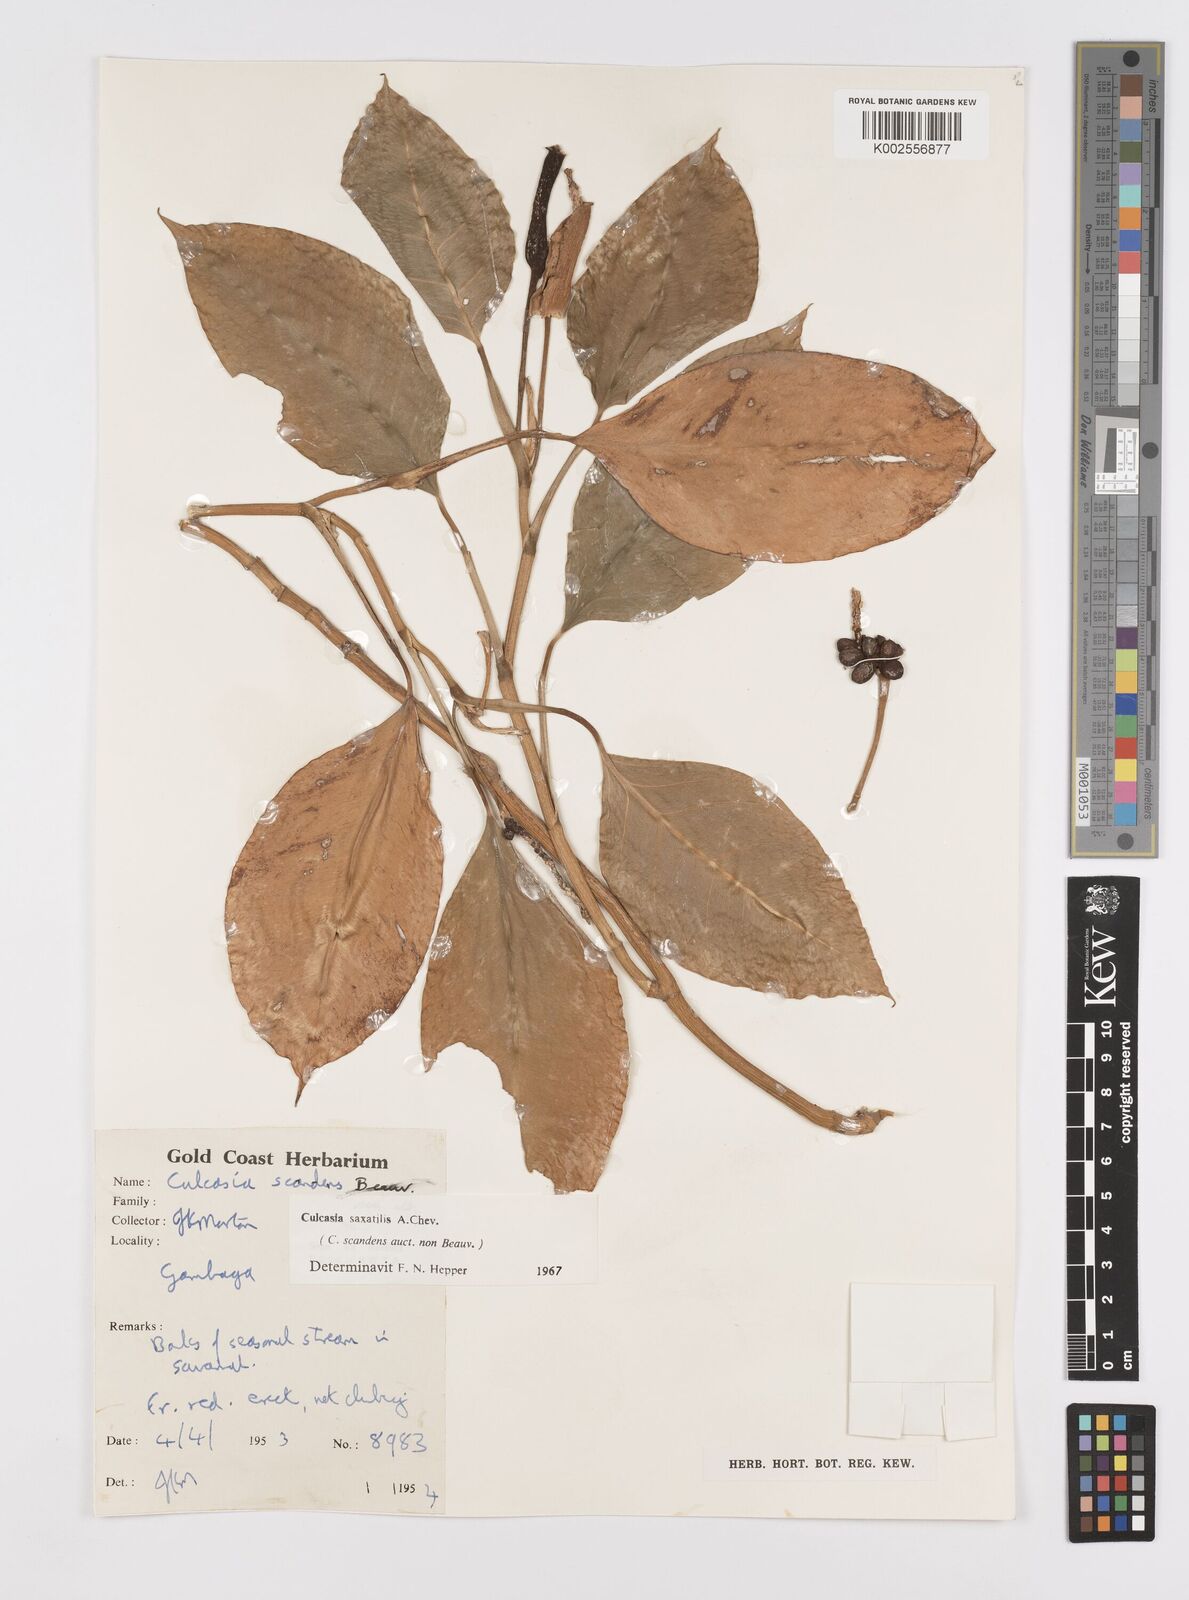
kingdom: Plantae
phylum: Tracheophyta
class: Liliopsida
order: Alismatales
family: Araceae
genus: Culcasia
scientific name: Culcasia scandens
